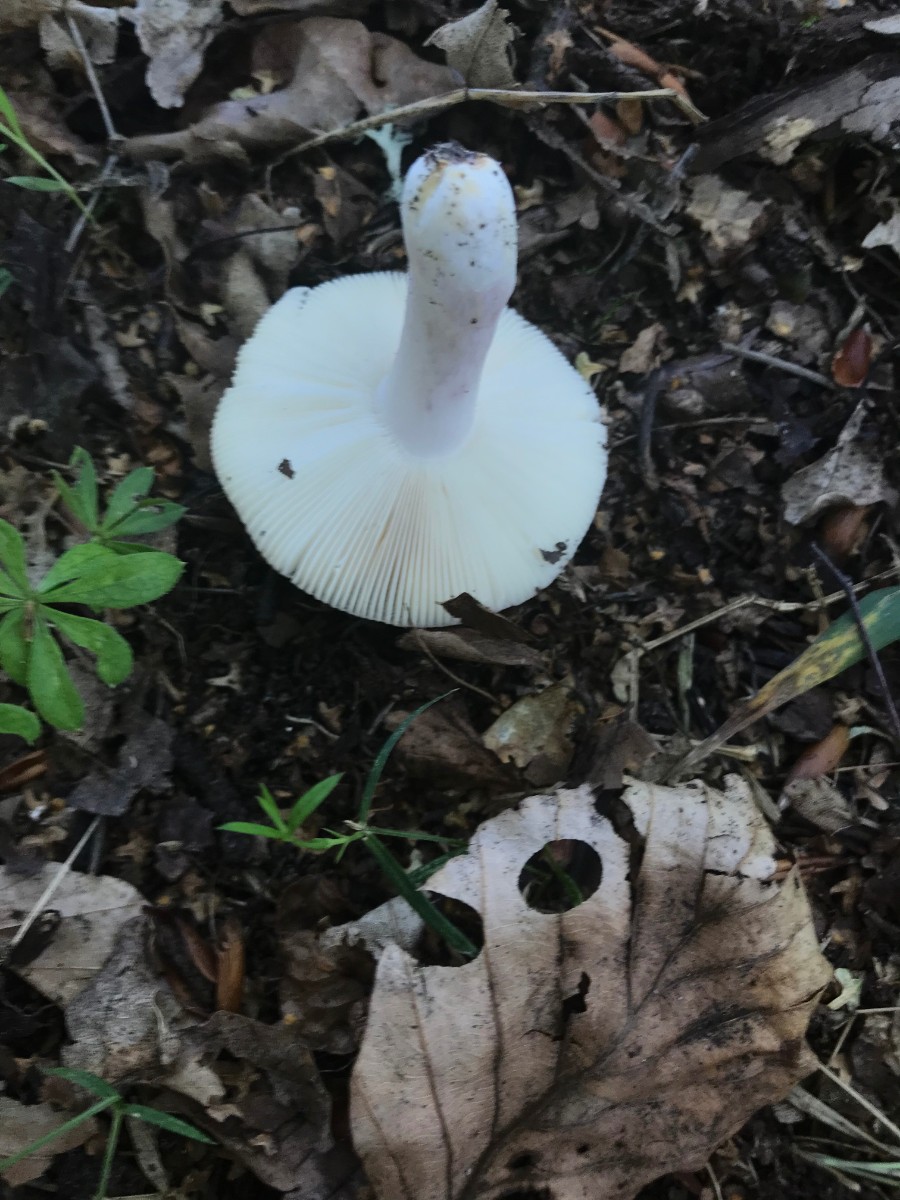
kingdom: Fungi
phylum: Basidiomycota
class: Agaricomycetes
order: Russulales
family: Russulaceae
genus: Russula
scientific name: Russula
